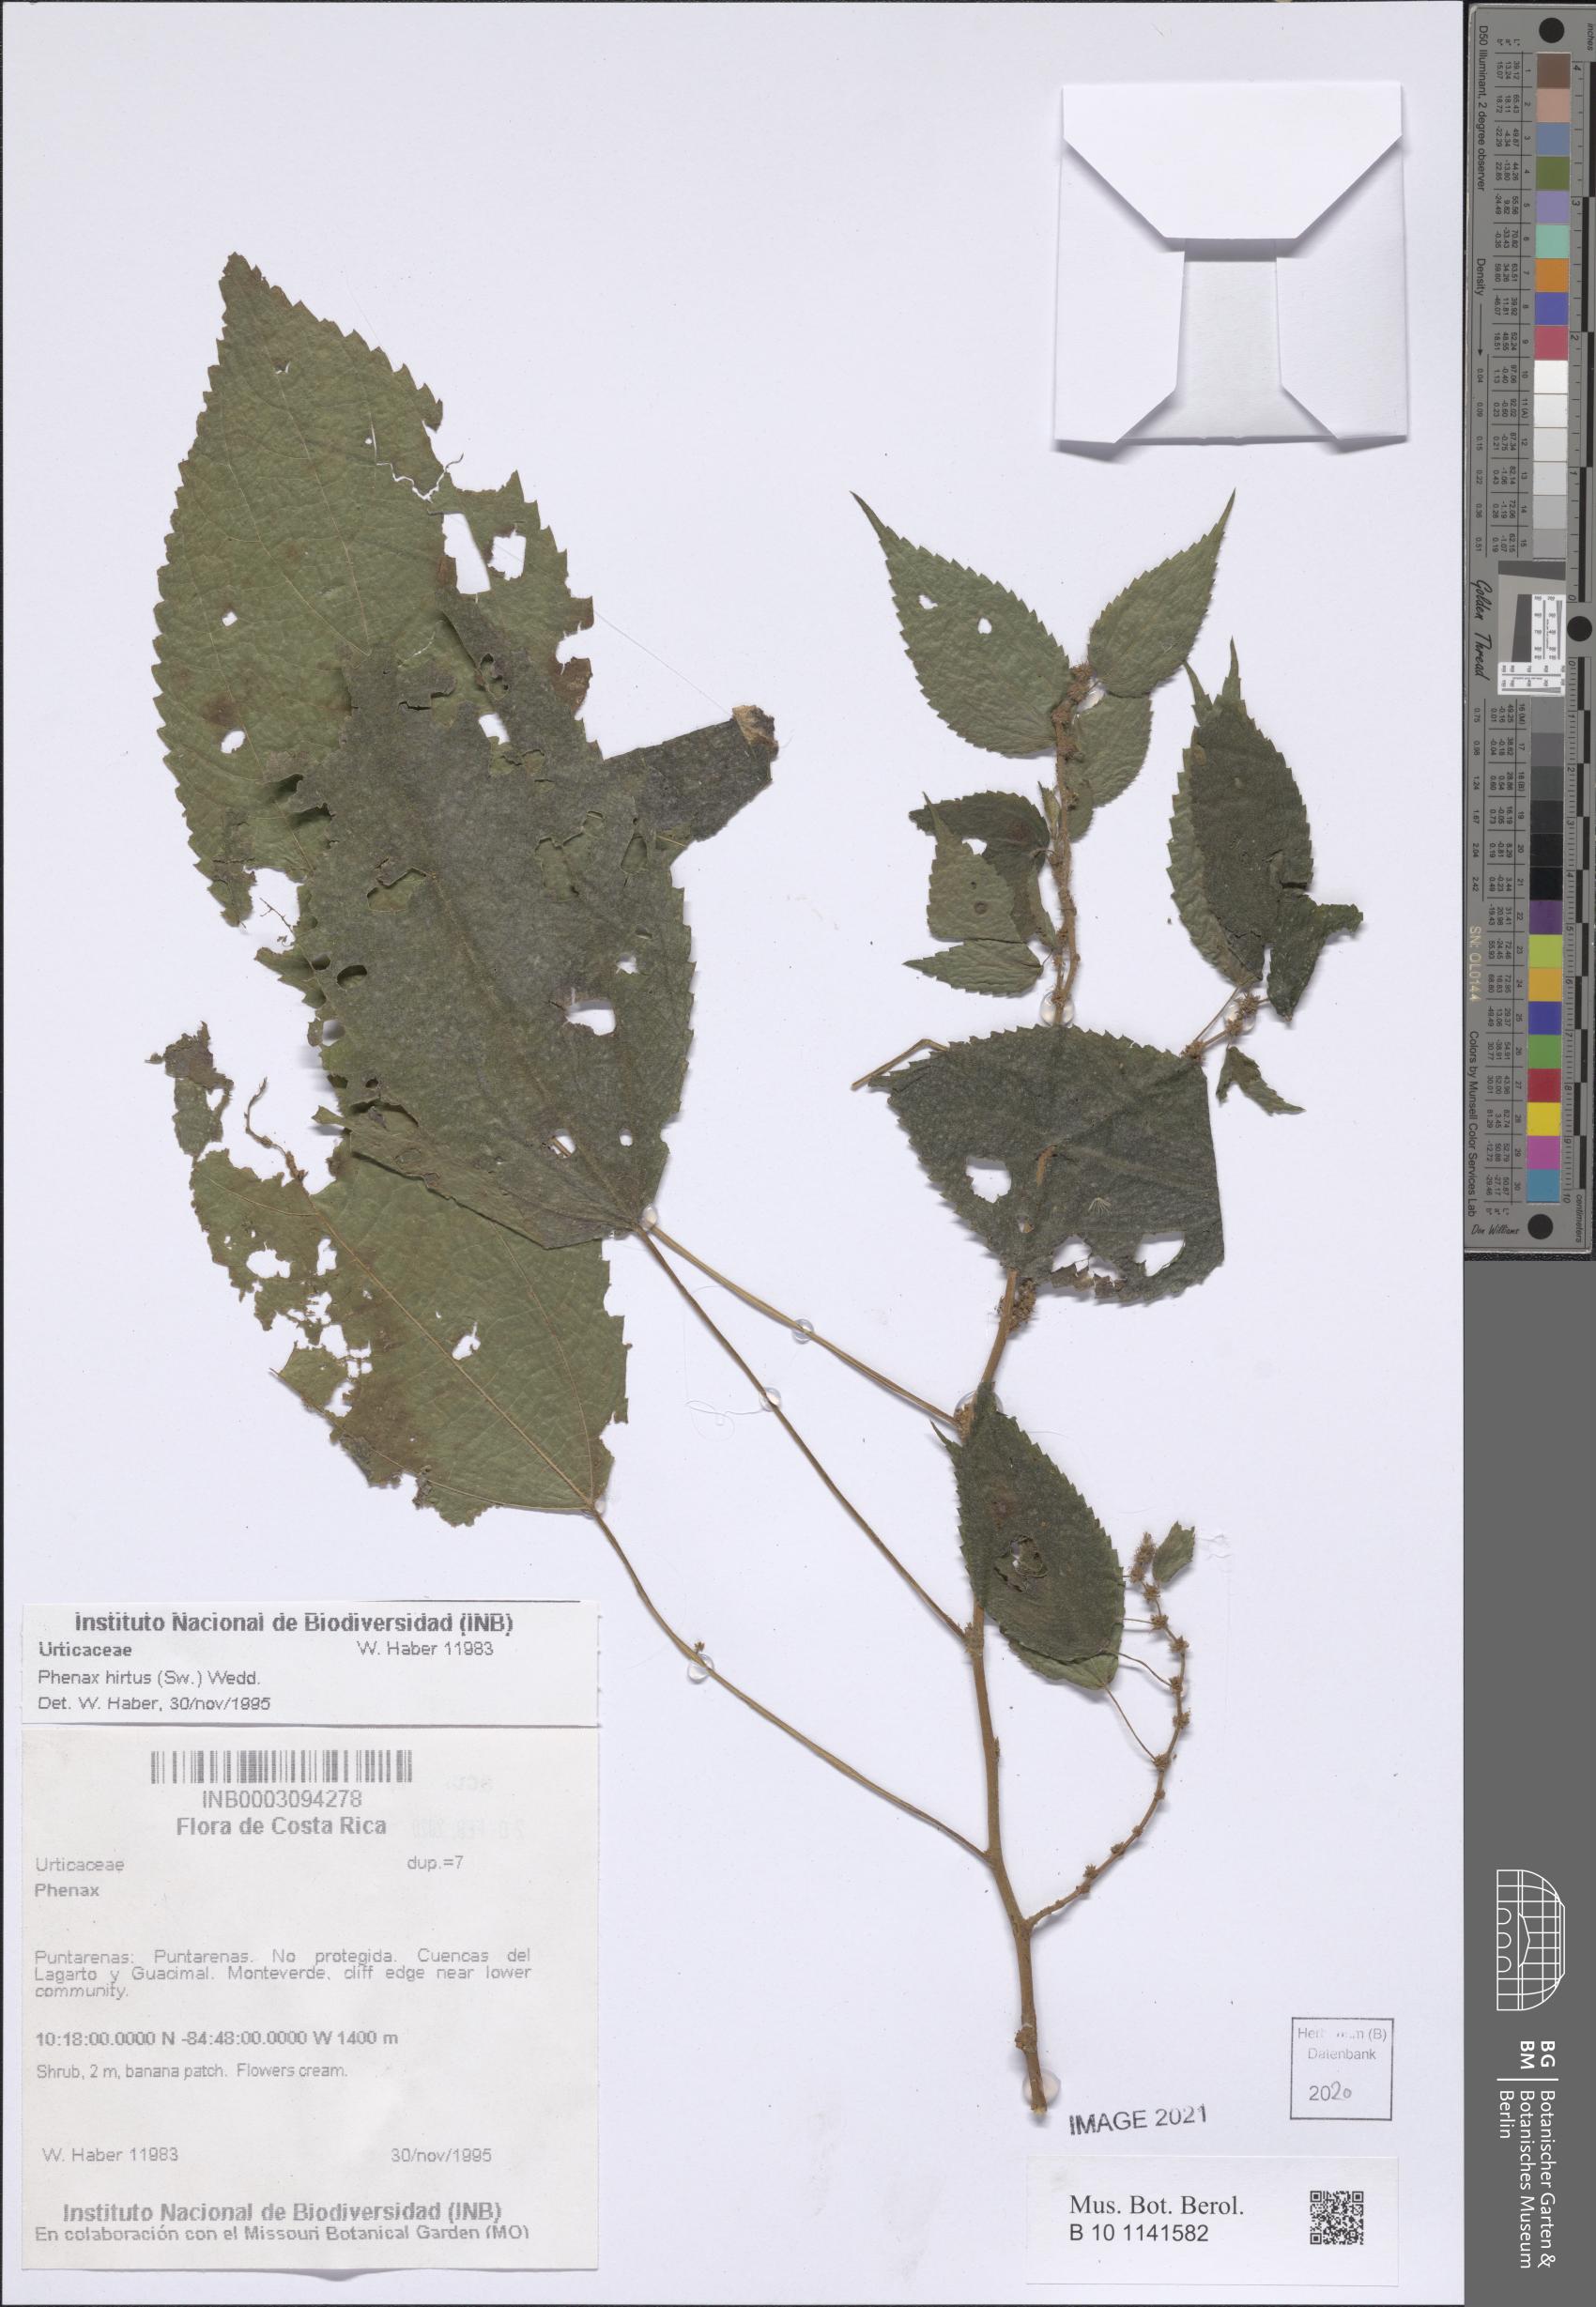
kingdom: Plantae
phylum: Tracheophyta
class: Magnoliopsida
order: Rosales
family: Urticaceae
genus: Phenax
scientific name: Phenax hirtus
